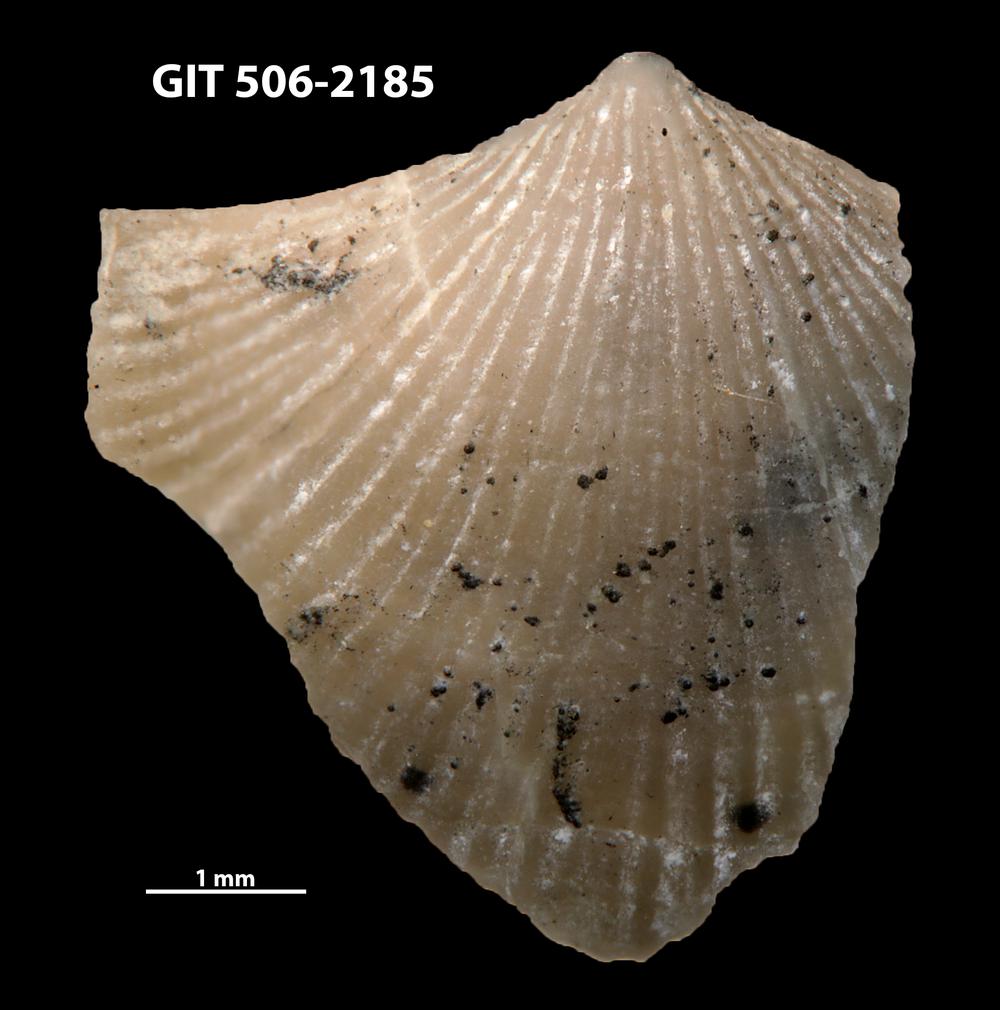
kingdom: Animalia
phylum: Brachiopoda
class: Rhynchonellata
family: Skenidiidae
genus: Skenidioides
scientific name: Skenidioides hymiri
